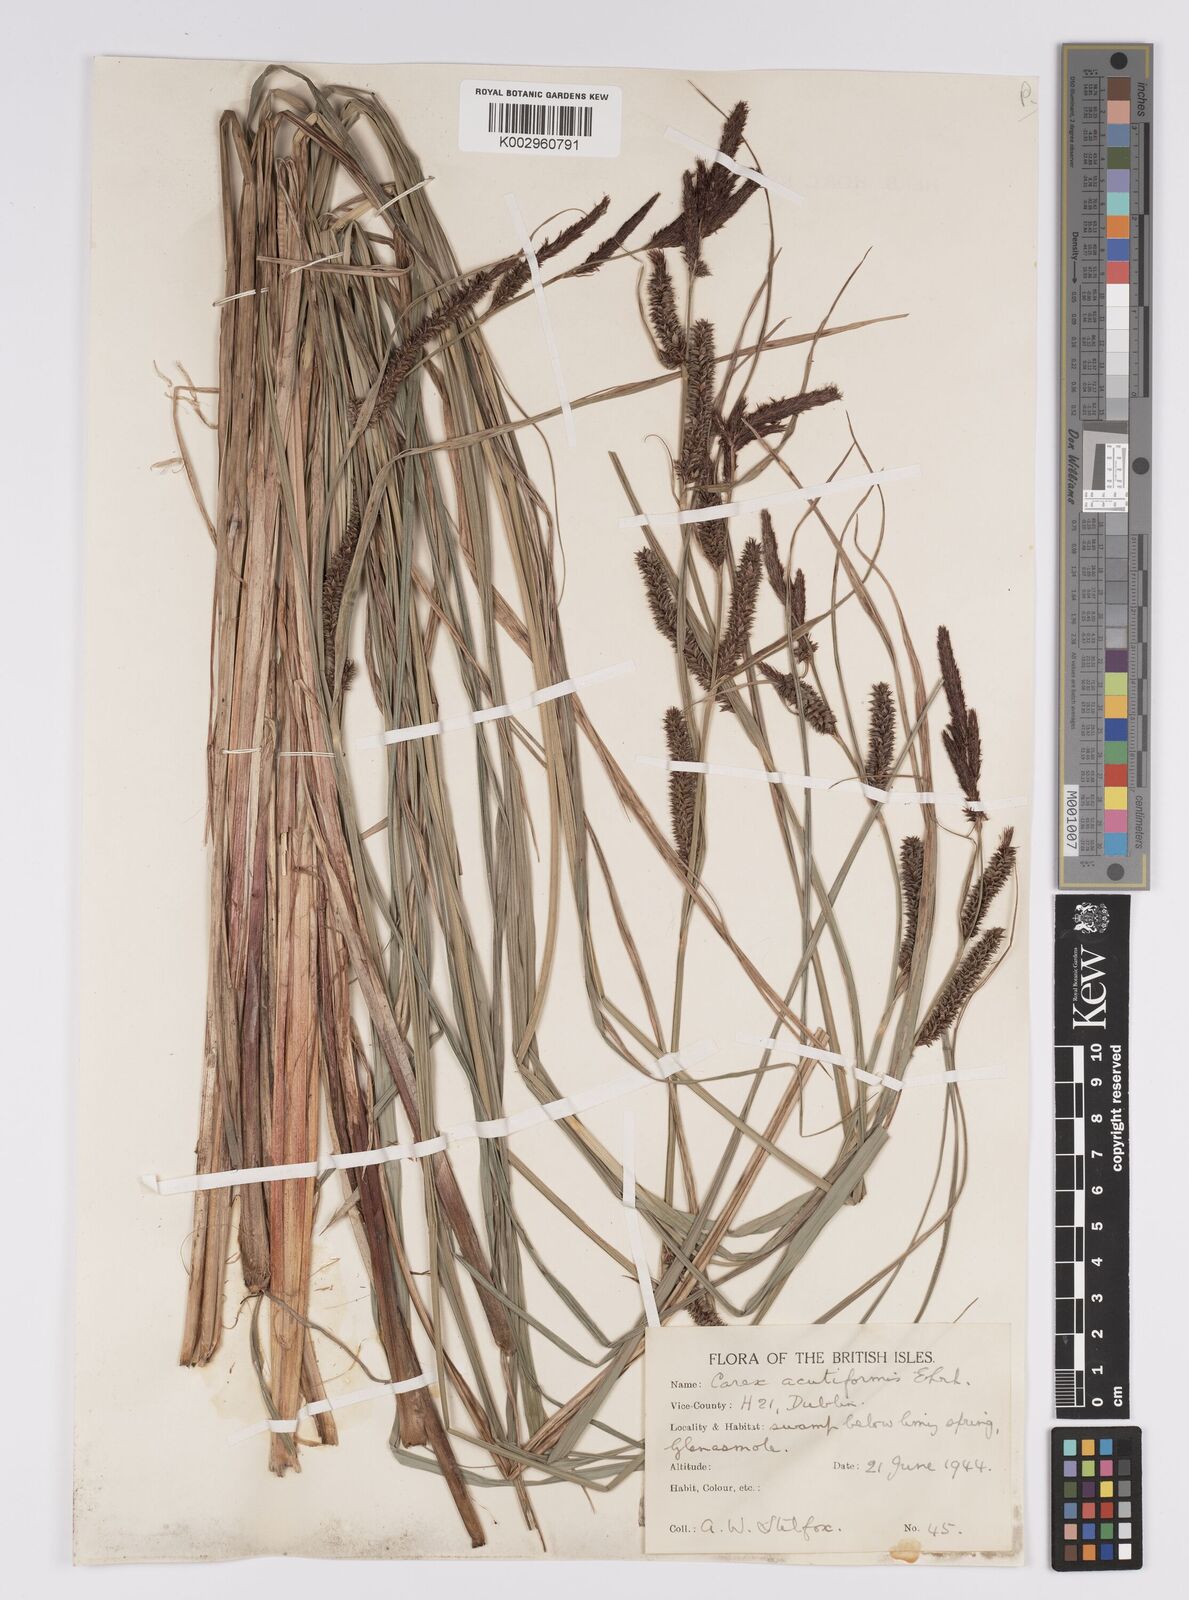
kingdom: Plantae
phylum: Tracheophyta
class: Liliopsida
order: Poales
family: Cyperaceae
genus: Carex
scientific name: Carex acutiformis
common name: Lesser pond-sedge
